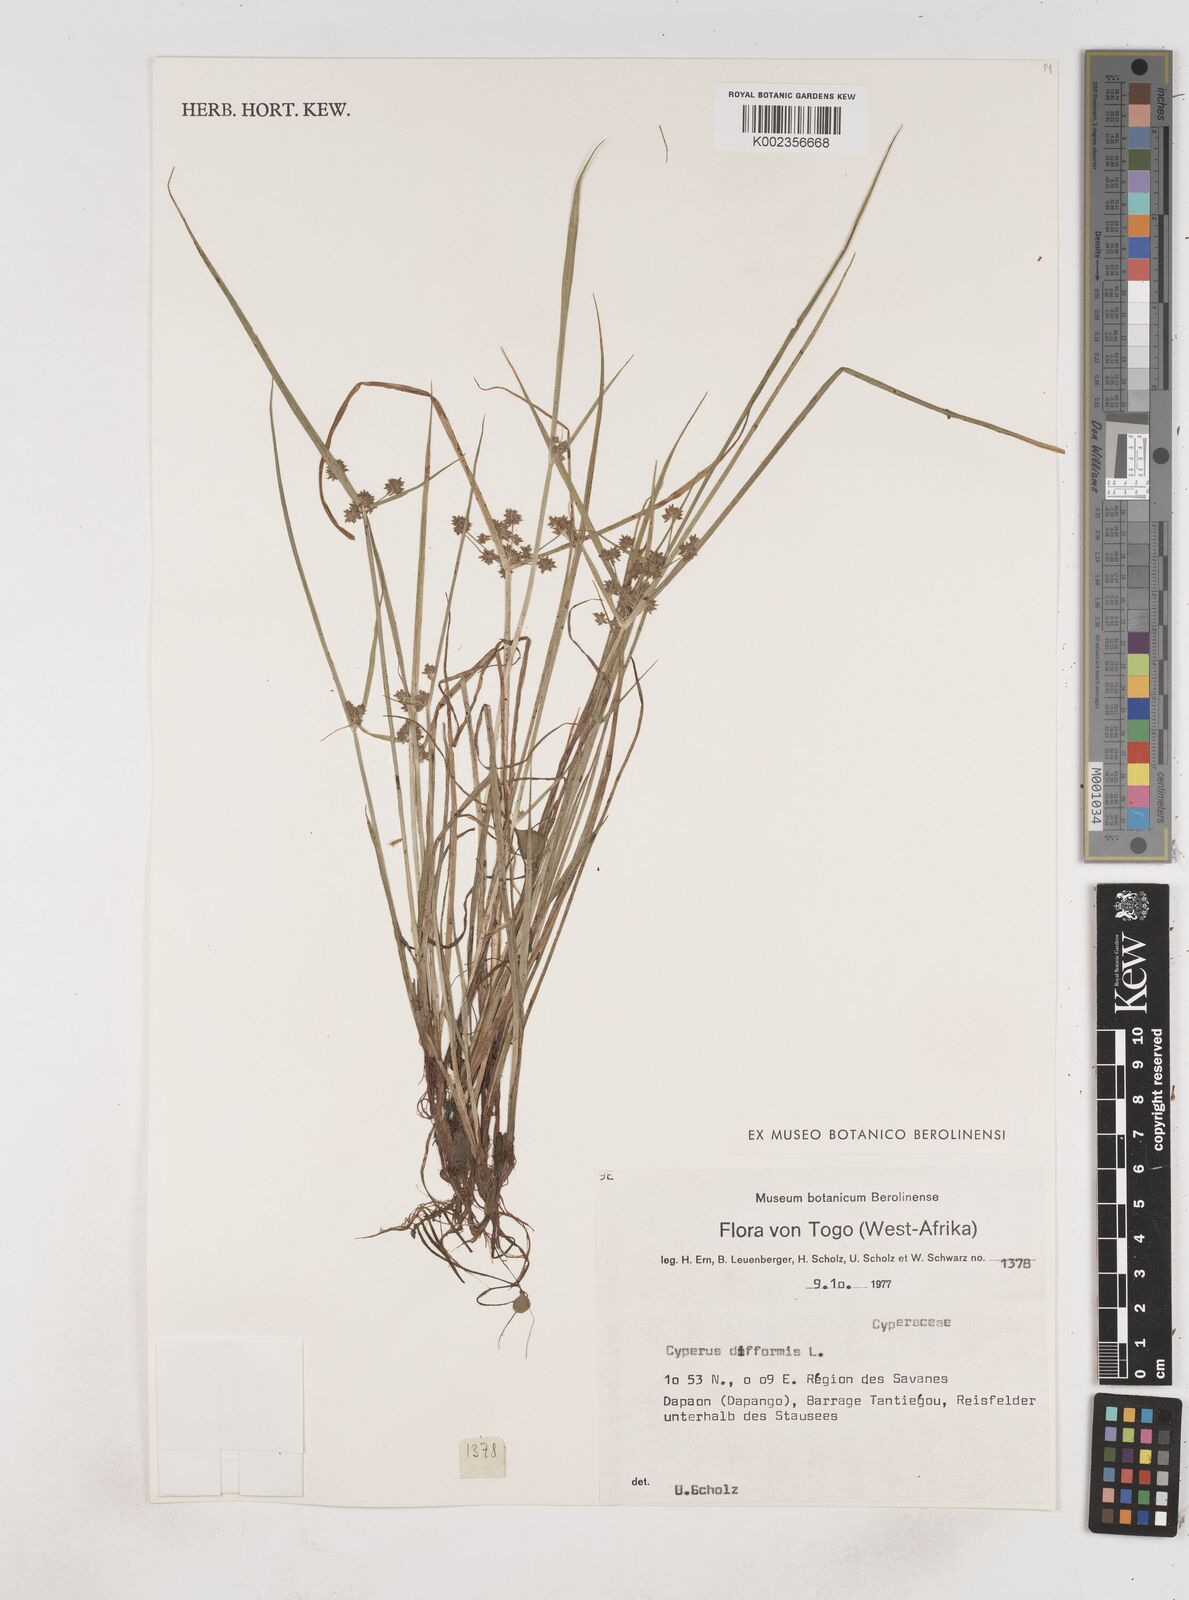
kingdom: Plantae
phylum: Tracheophyta
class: Liliopsida
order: Poales
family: Cyperaceae
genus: Cyperus
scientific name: Cyperus difformis
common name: Variable flatsedge
